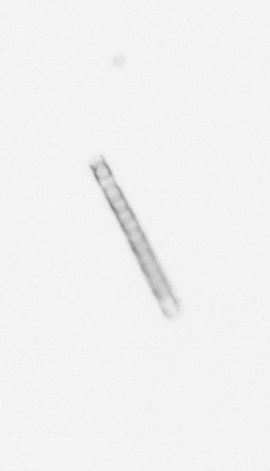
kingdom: Chromista
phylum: Ochrophyta
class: Bacillariophyceae
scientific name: Bacillariophyceae
